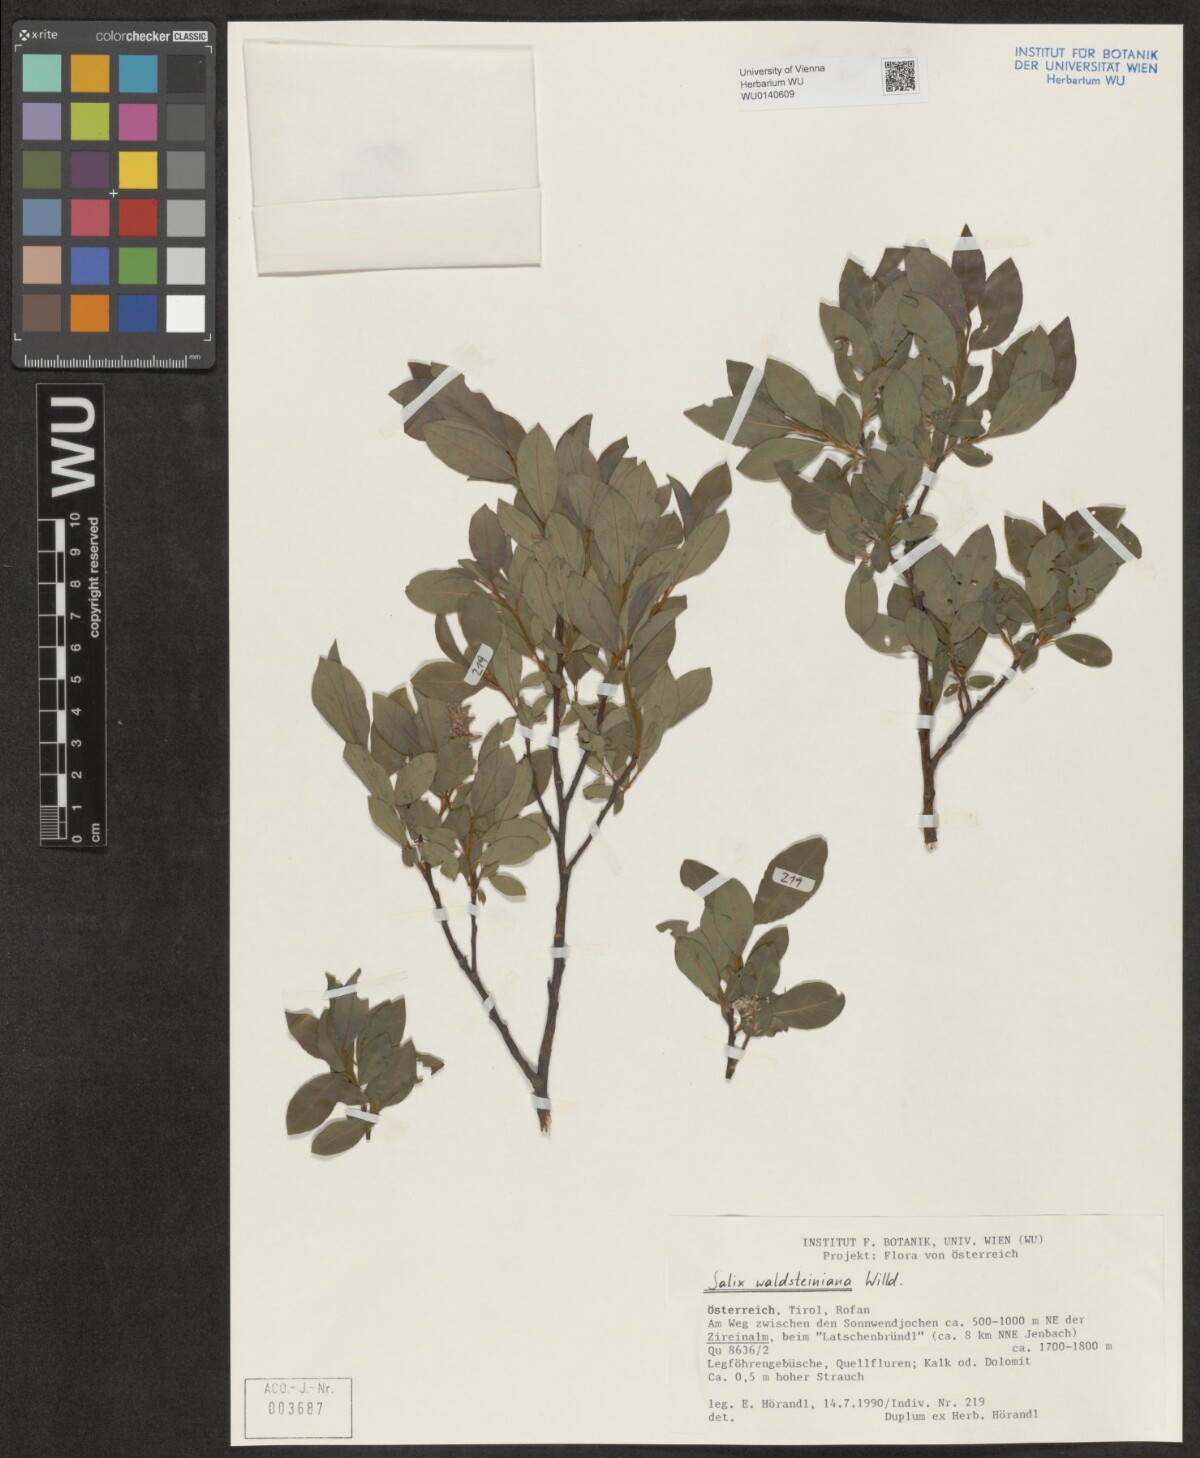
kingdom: Plantae
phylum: Tracheophyta
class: Magnoliopsida
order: Malpighiales
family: Salicaceae
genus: Salix
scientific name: Salix waldsteiniana
